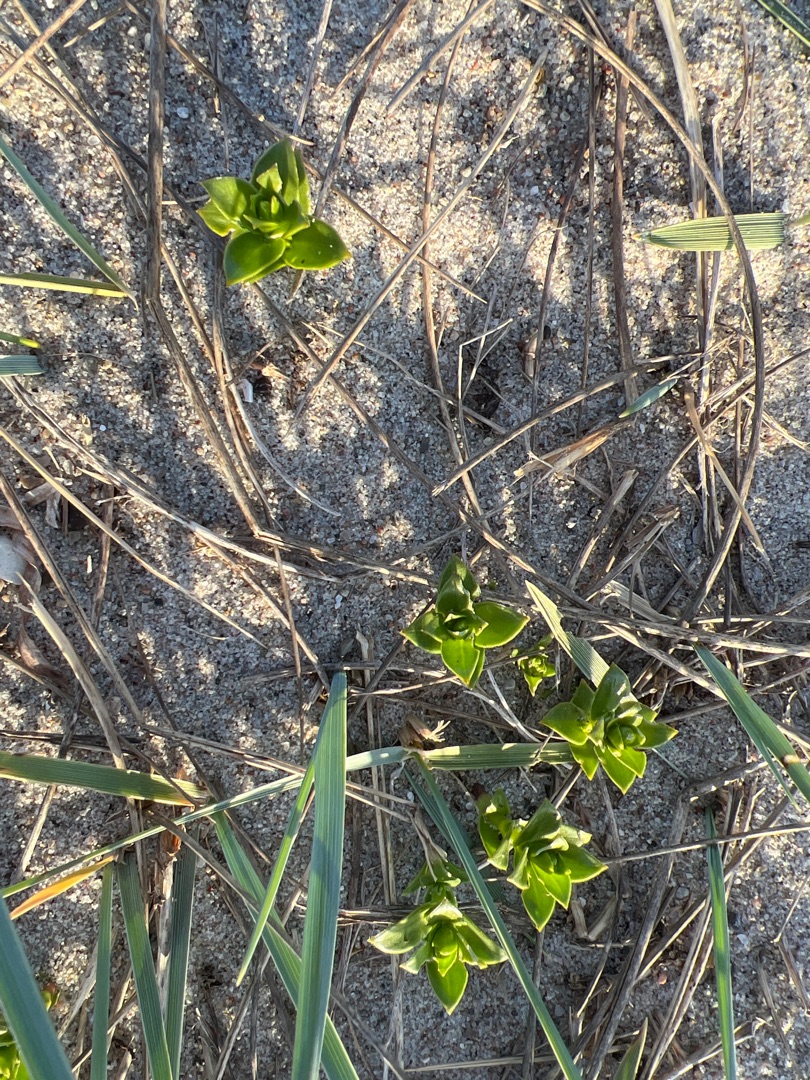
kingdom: Plantae
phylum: Tracheophyta
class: Magnoliopsida
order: Caryophyllales
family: Caryophyllaceae
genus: Honckenya
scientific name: Honckenya peploides
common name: Strandarve
